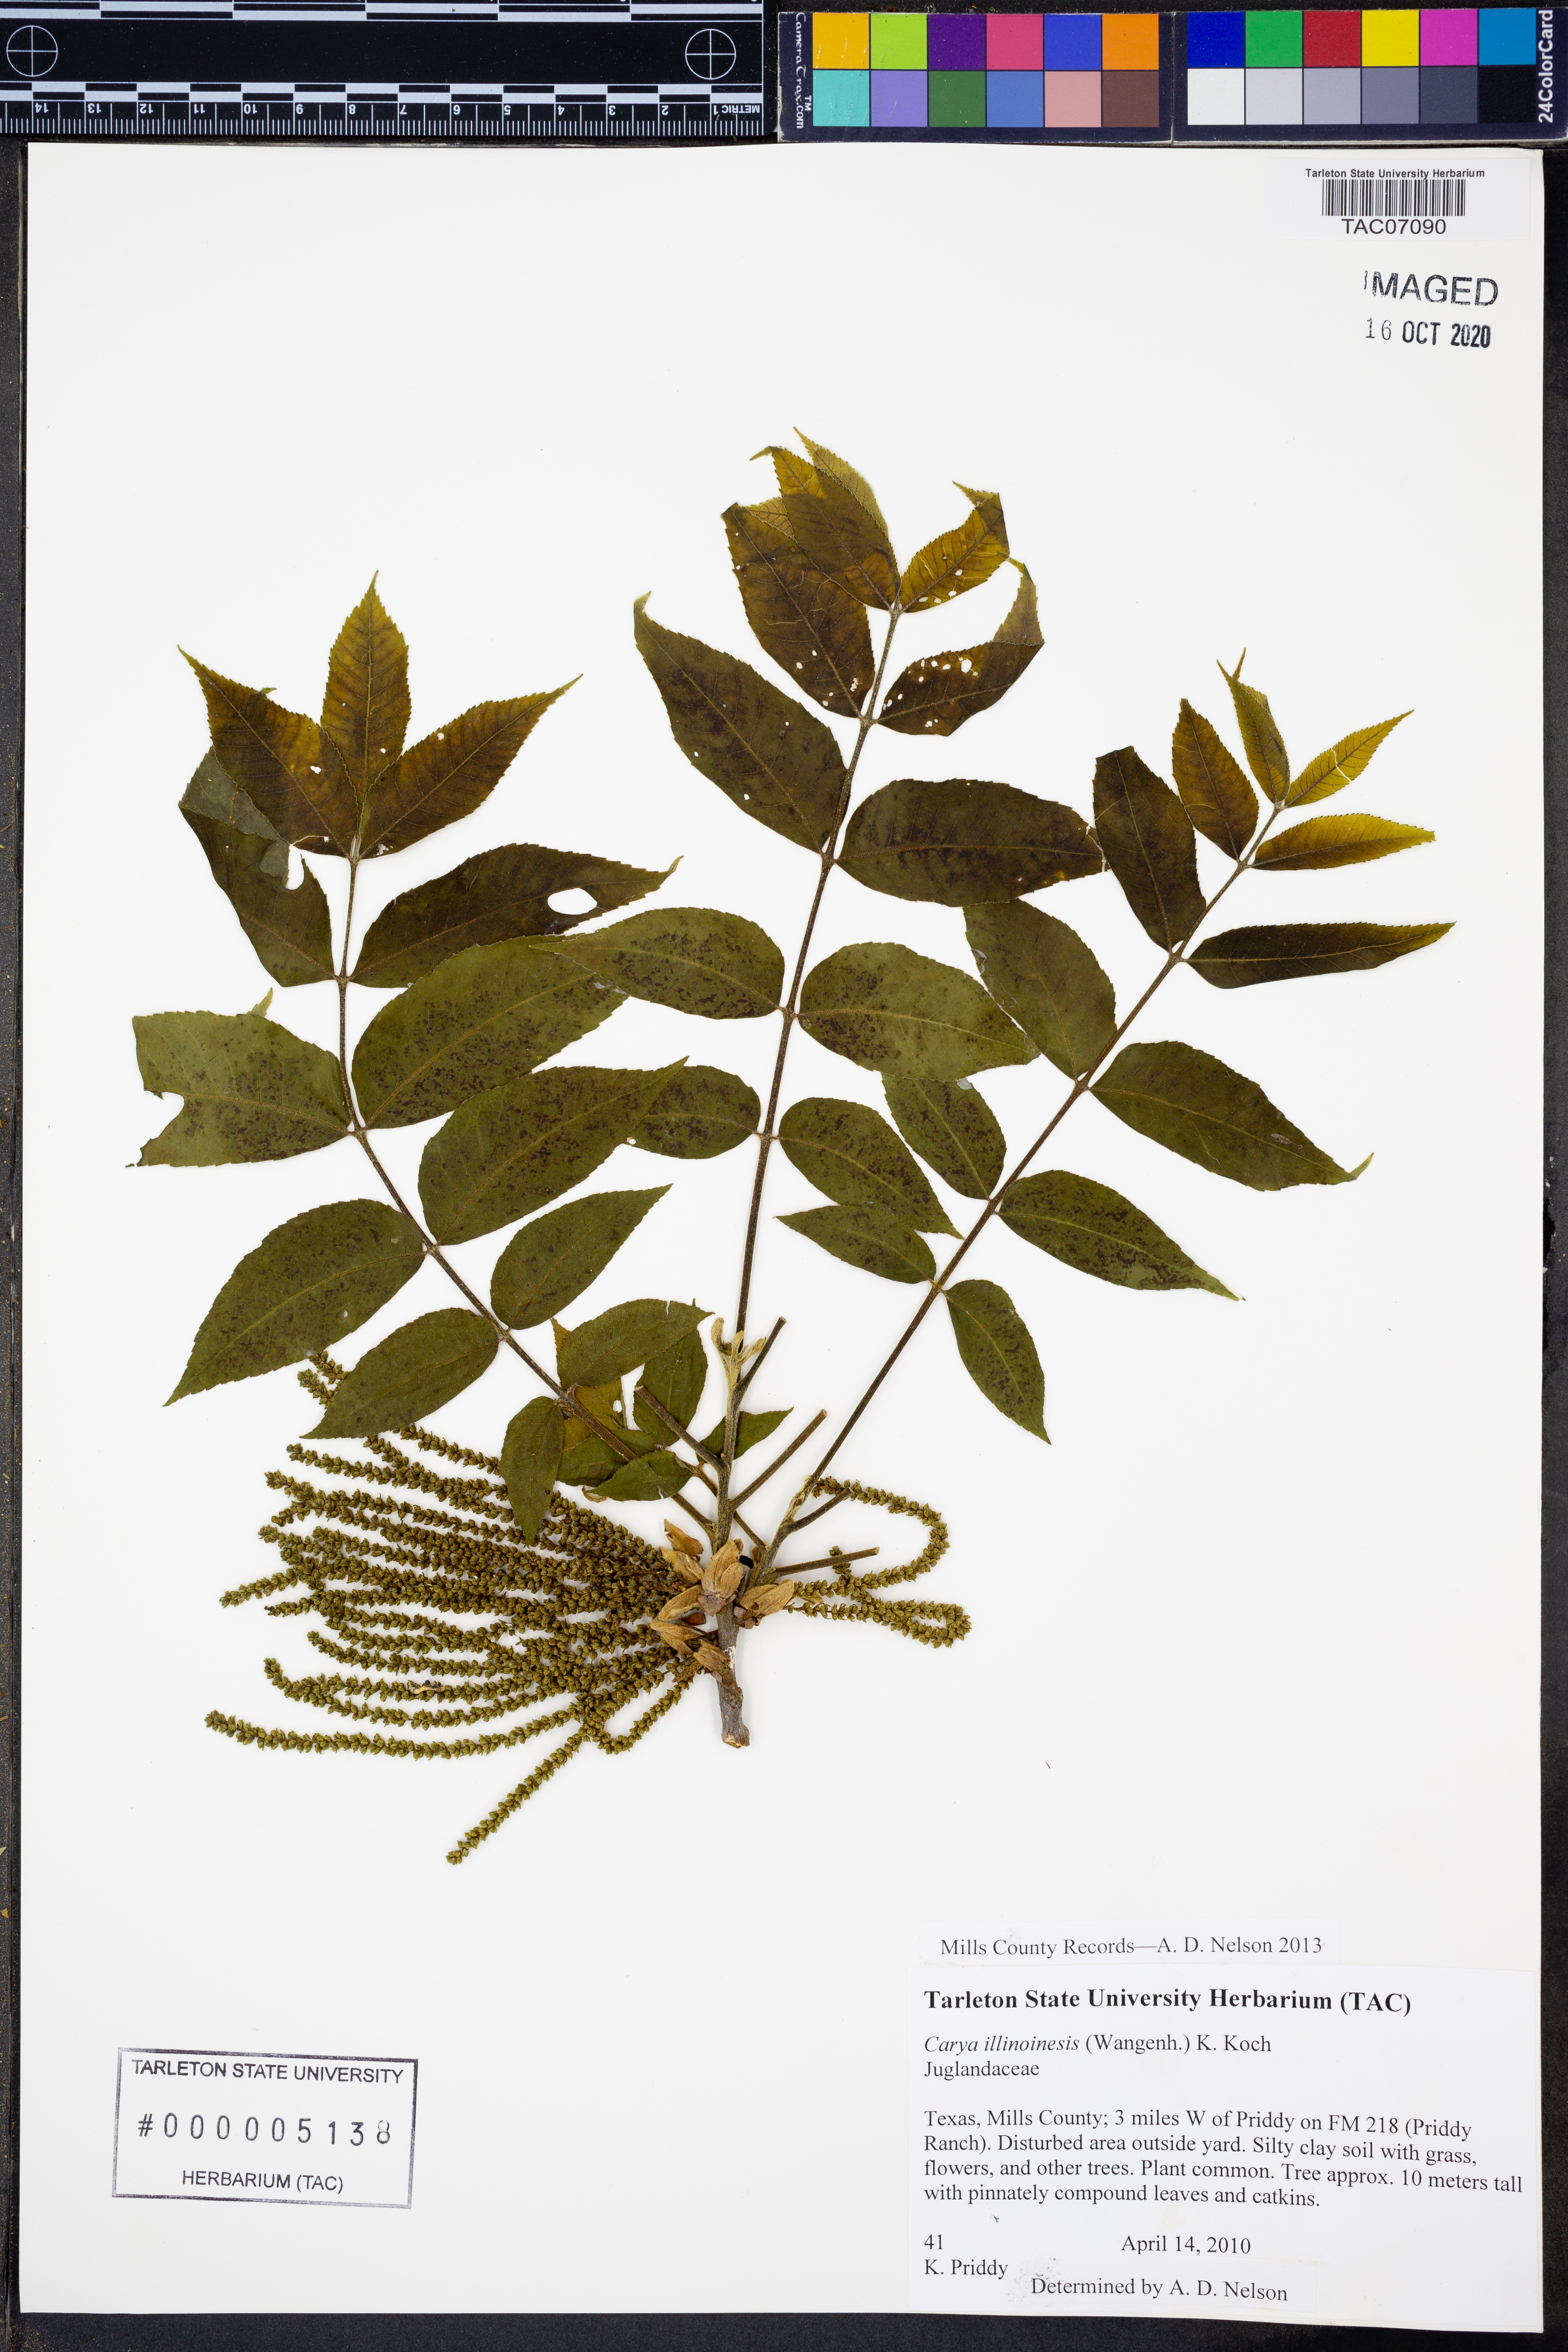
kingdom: Plantae
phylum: Tracheophyta
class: Magnoliopsida
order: Fagales
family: Juglandaceae
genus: Carya
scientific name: Carya illinoinensis
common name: Pecan
